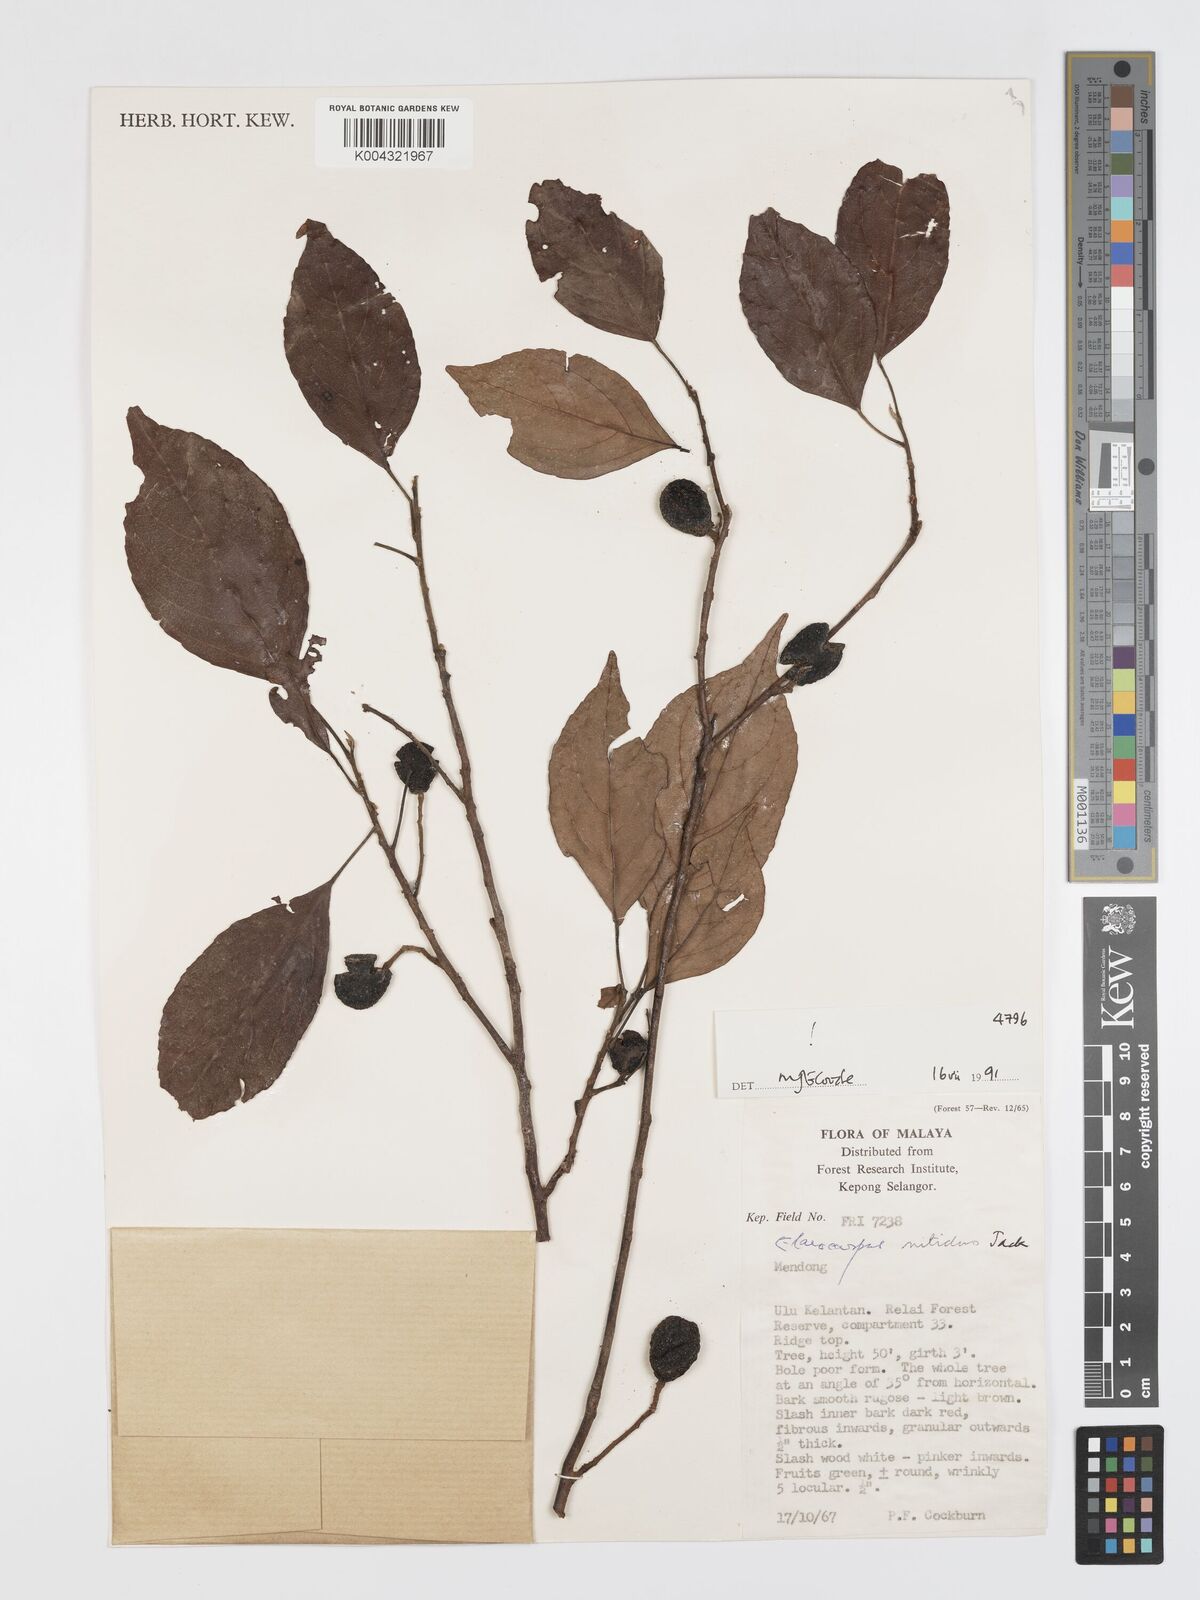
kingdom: Plantae
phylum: Tracheophyta
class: Magnoliopsida
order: Oxalidales
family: Elaeocarpaceae
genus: Elaeocarpus
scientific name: Elaeocarpus nitidus
